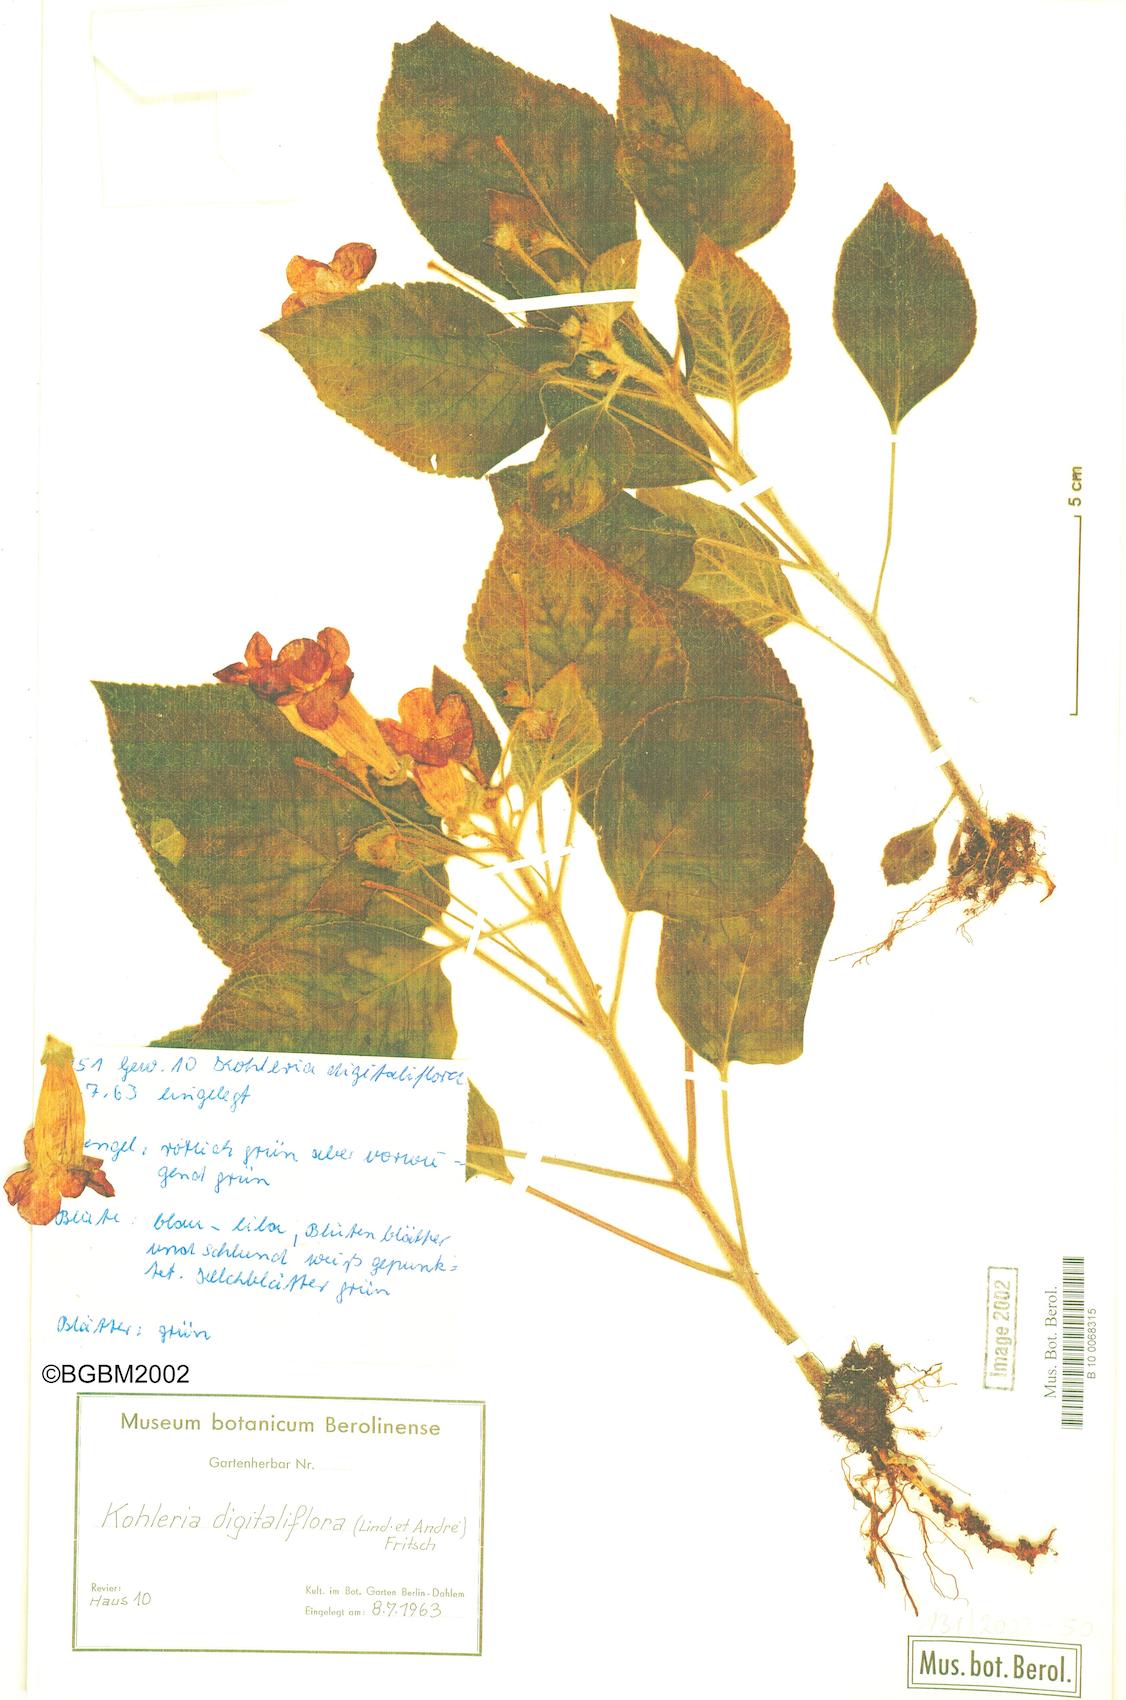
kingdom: Plantae
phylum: Tracheophyta
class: Magnoliopsida
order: Lamiales
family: Gesneriaceae
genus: Kohleria
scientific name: Kohleria warszewiczii
